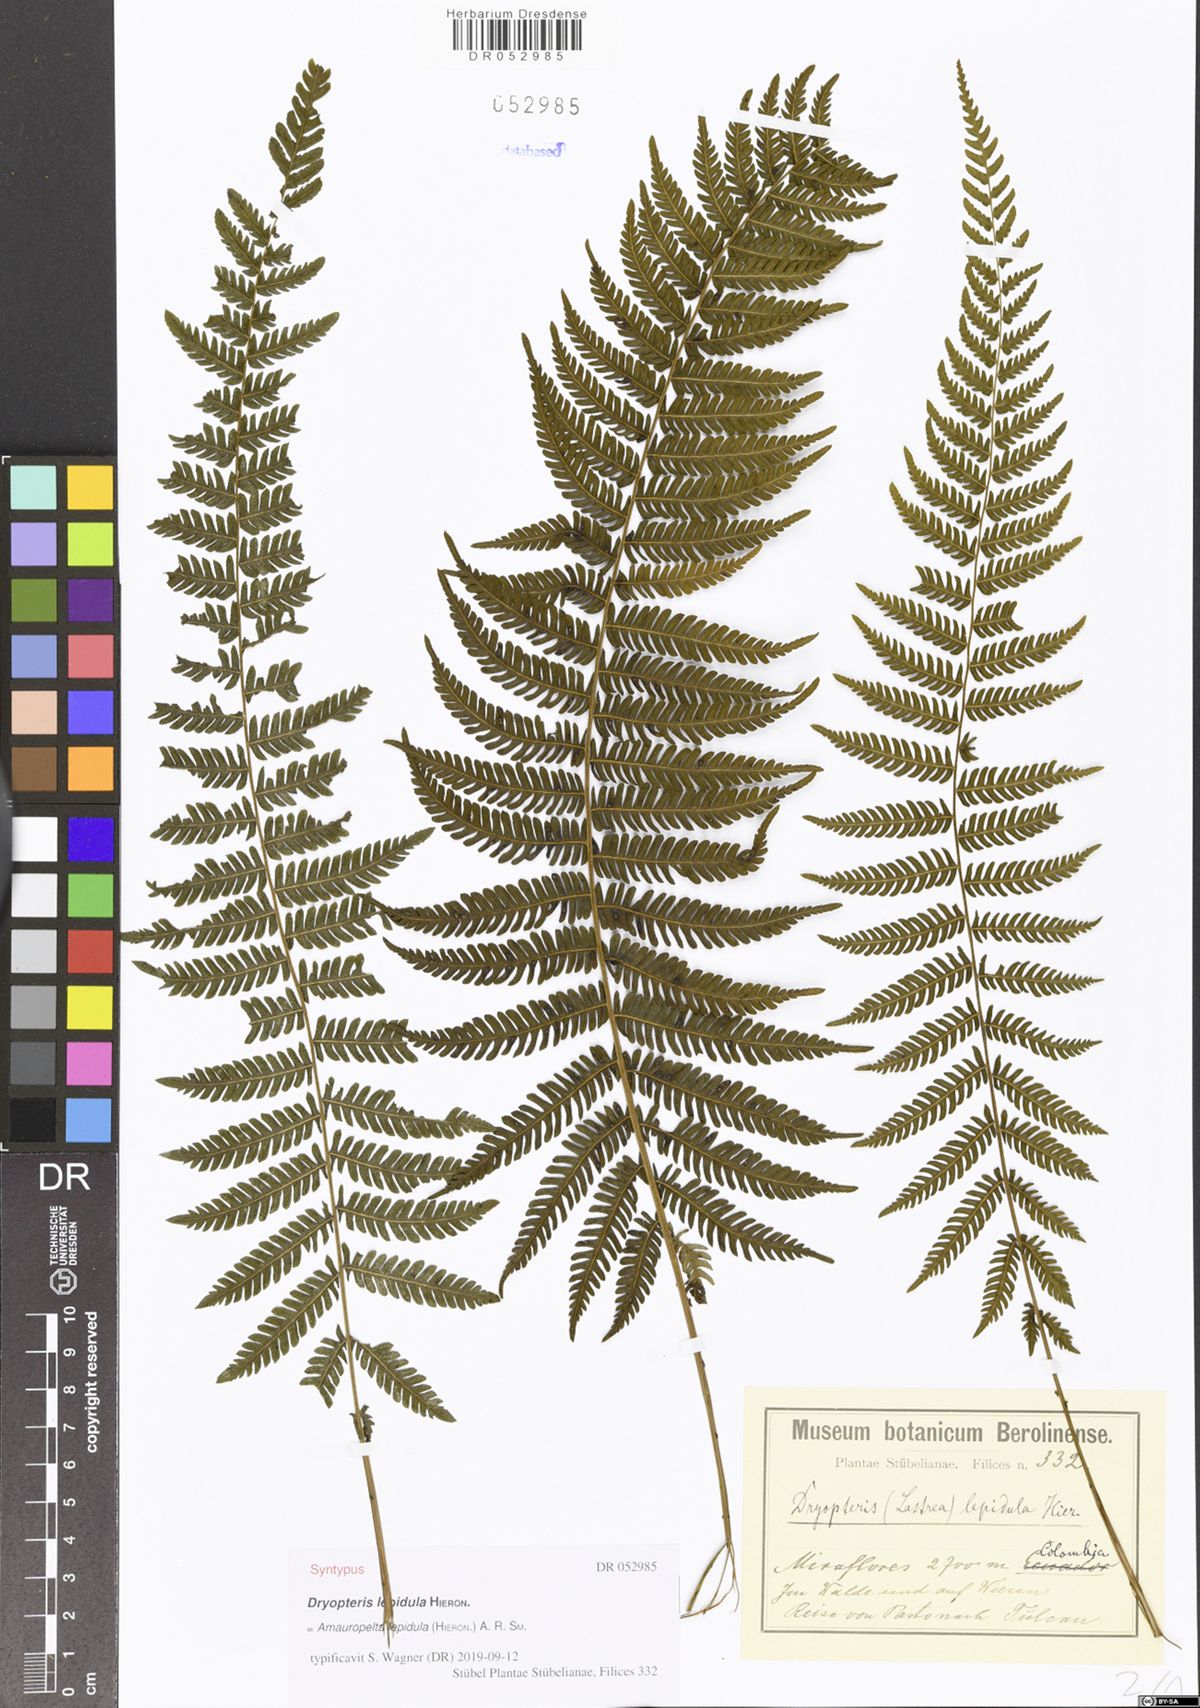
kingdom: Plantae
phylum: Tracheophyta
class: Polypodiopsida
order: Polypodiales
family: Thelypteridaceae
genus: Amauropelta
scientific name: Amauropelta lepidula
